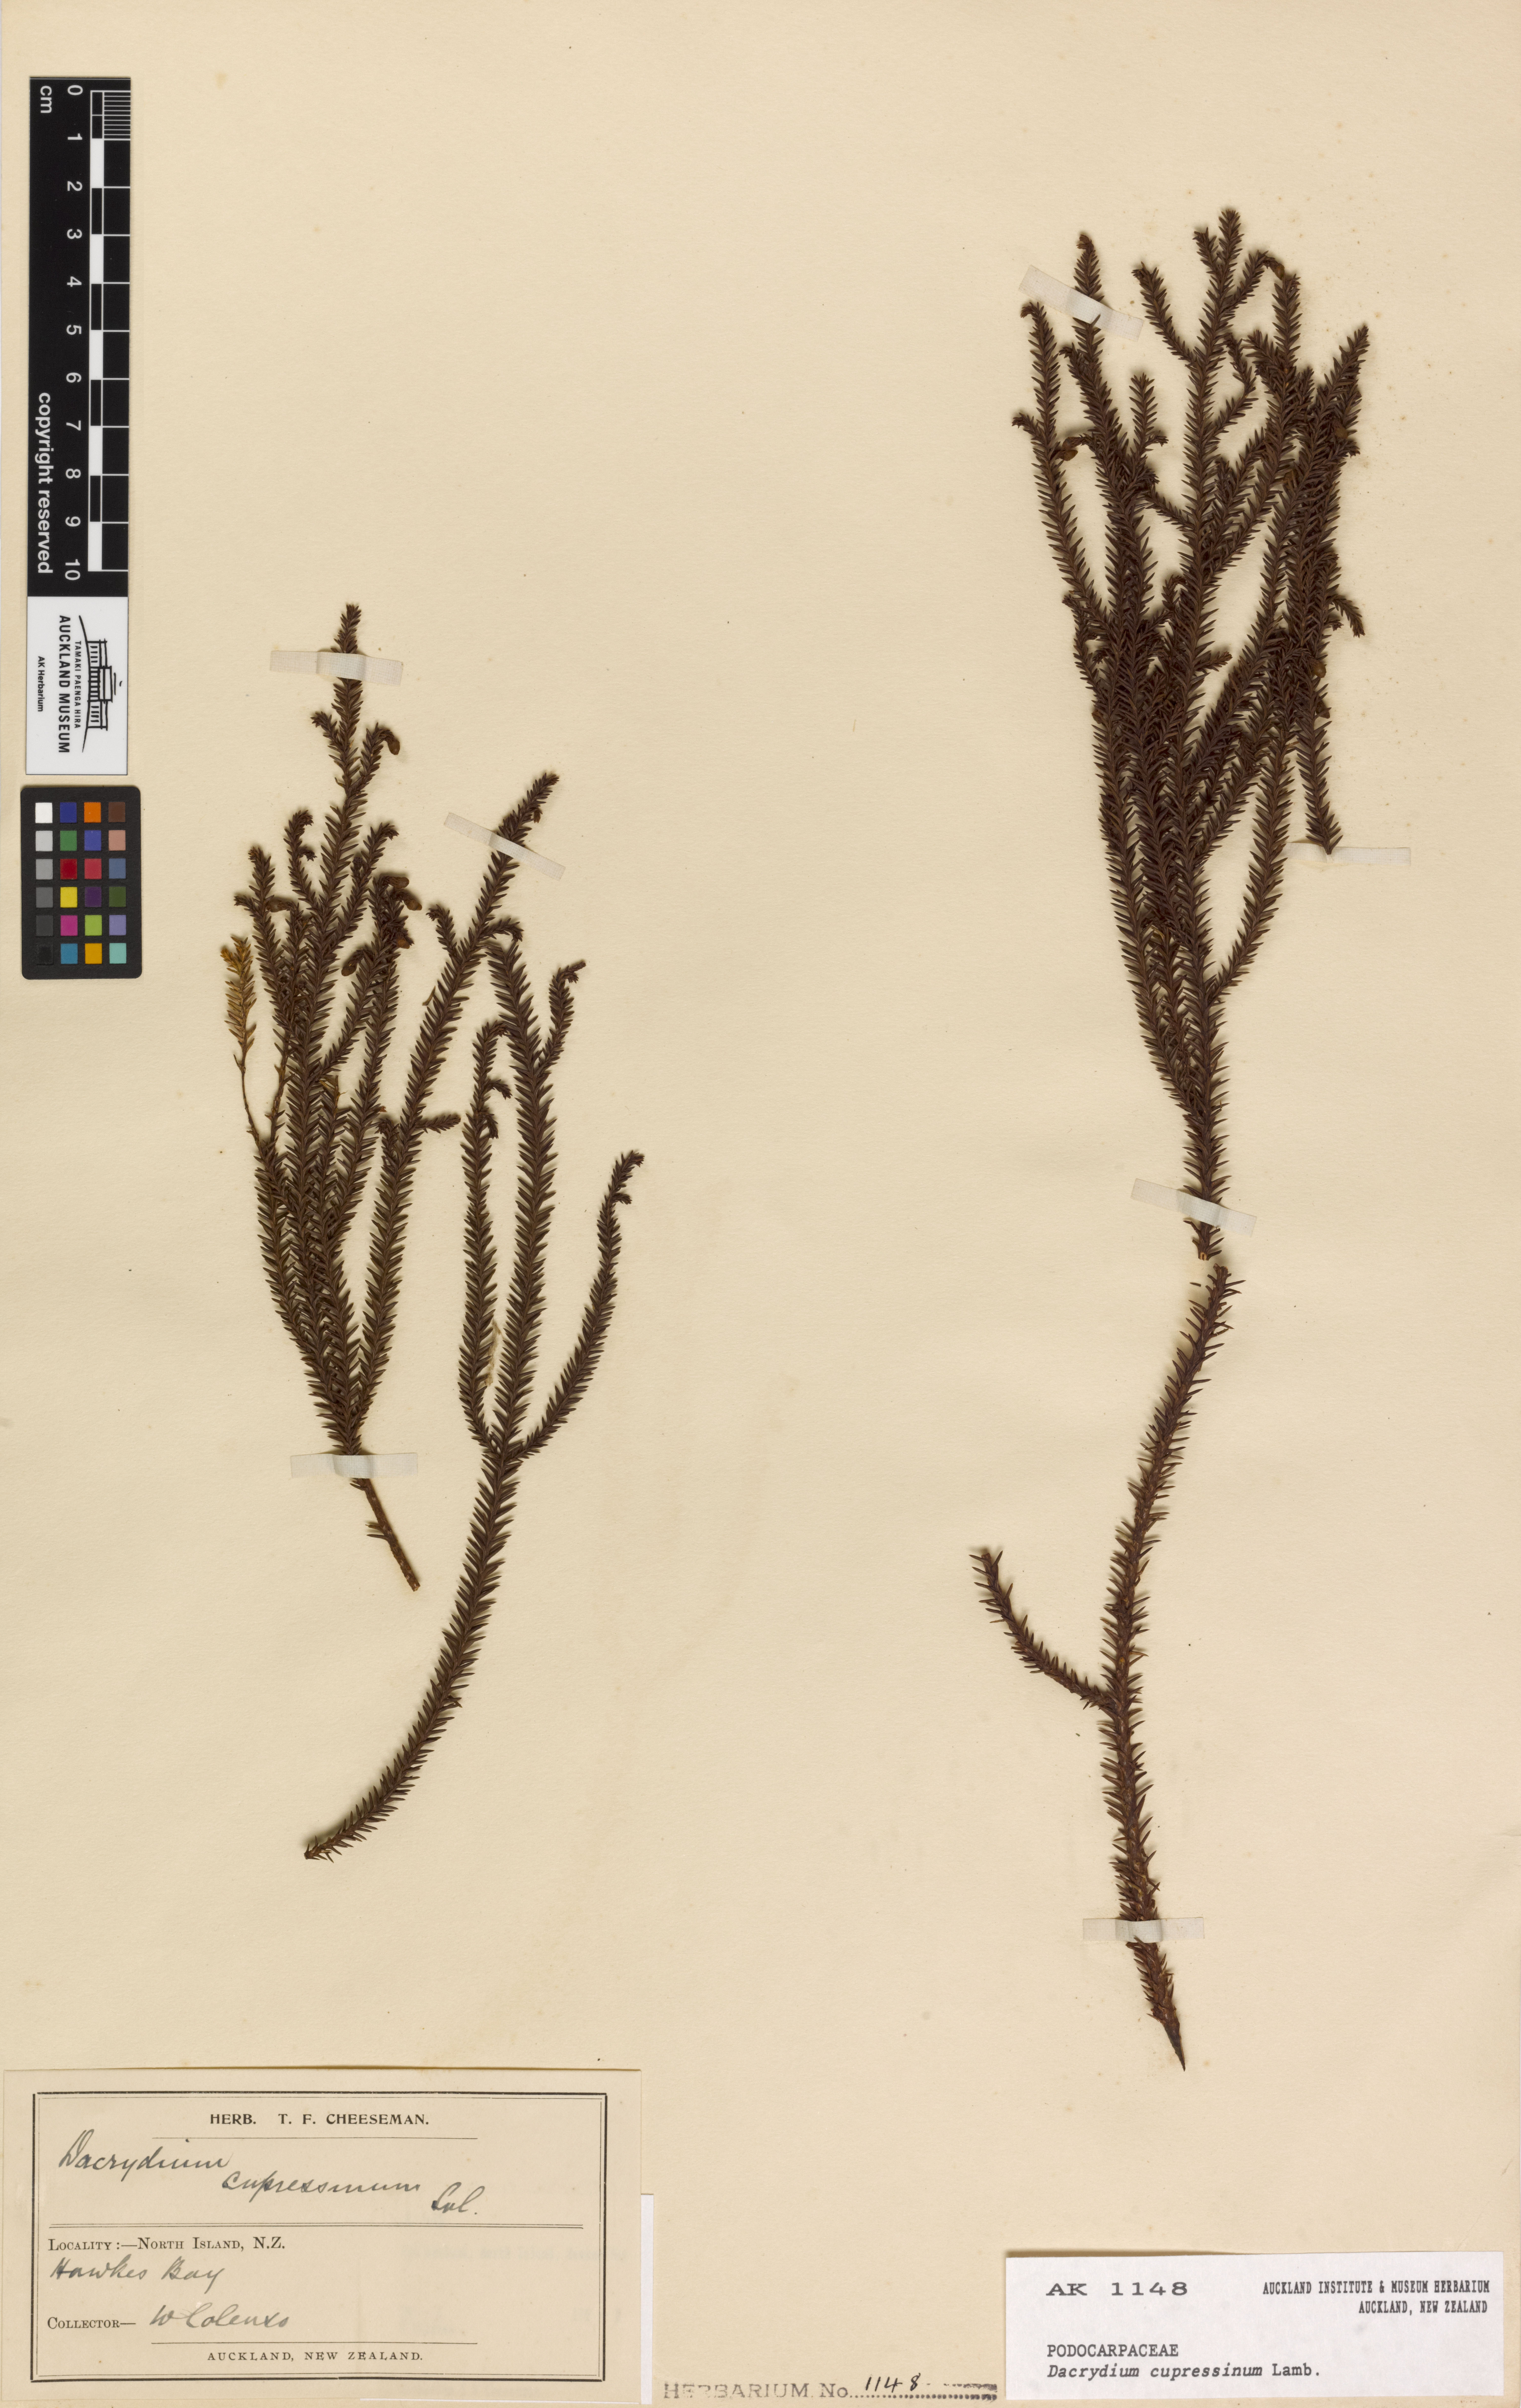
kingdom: Plantae
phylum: Tracheophyta
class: Pinopsida
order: Pinales
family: Podocarpaceae
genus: Dacrydium
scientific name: Dacrydium cupressinum
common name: Red pine
